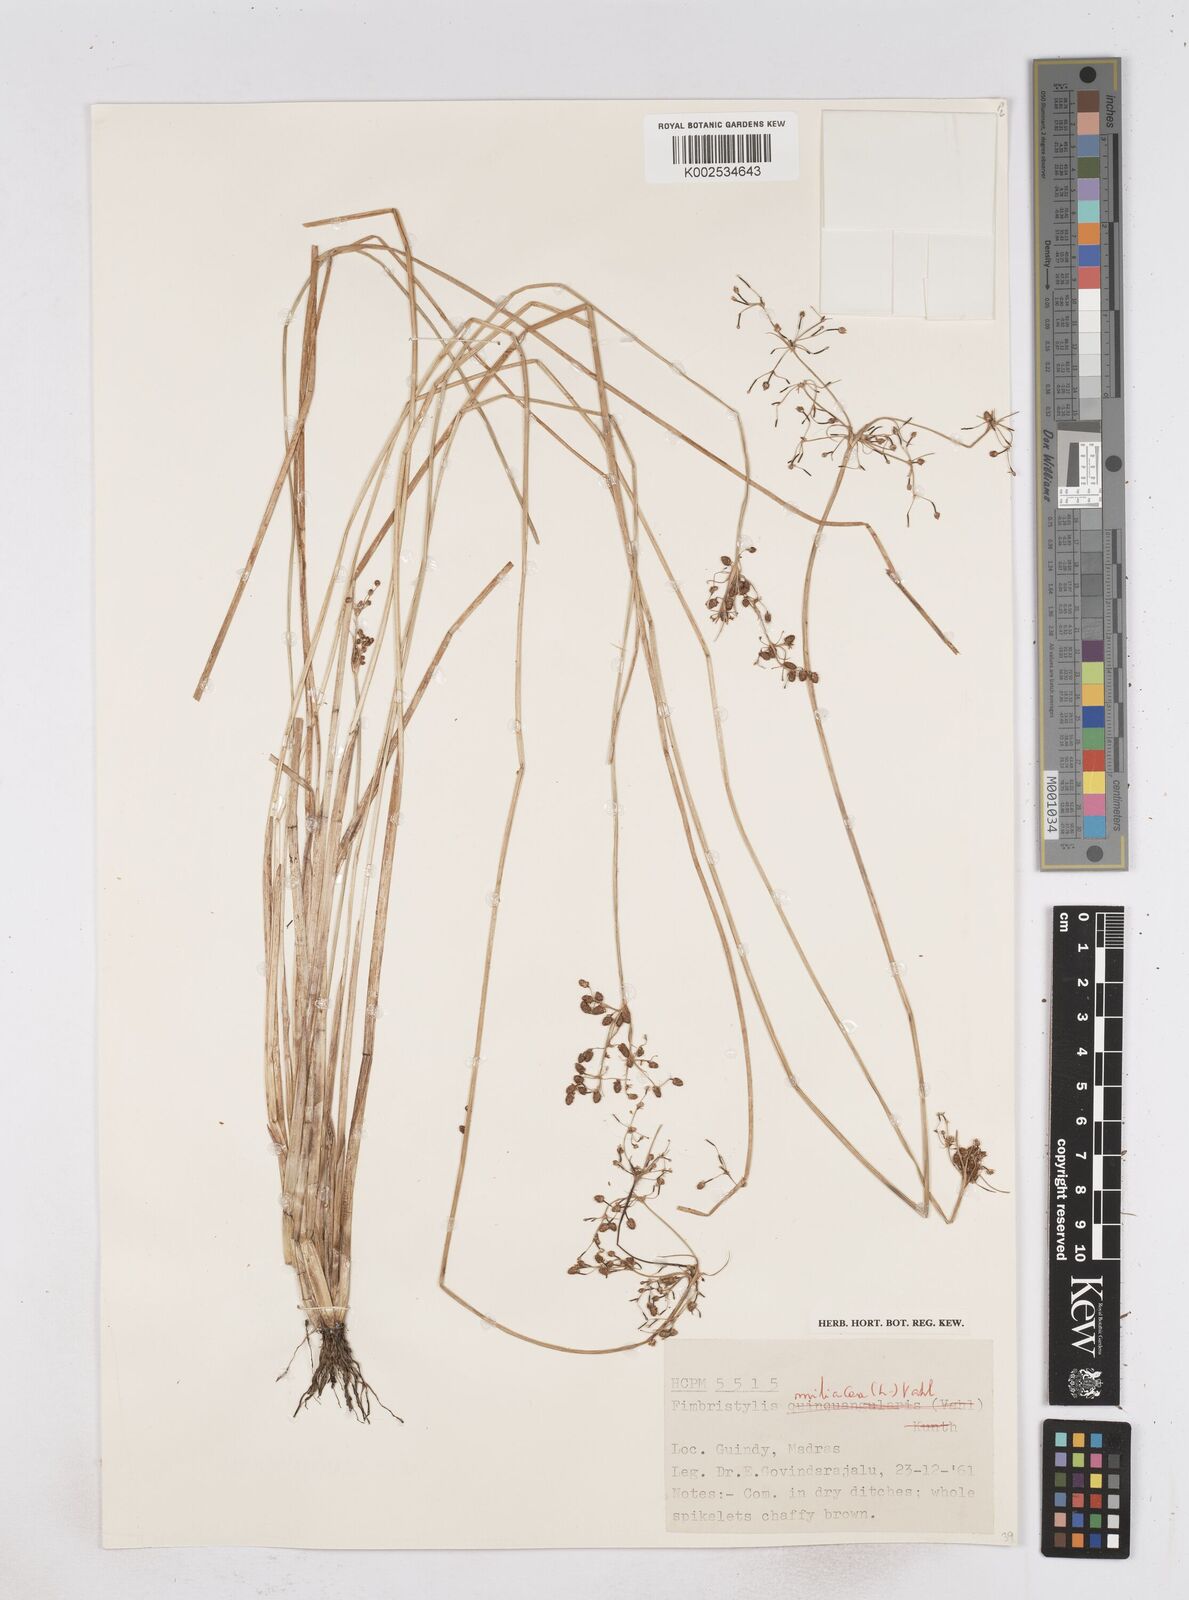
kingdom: Plantae
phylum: Tracheophyta
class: Liliopsida
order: Poales
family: Cyperaceae
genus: Fimbristylis
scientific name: Fimbristylis littoralis
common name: Fimbry
